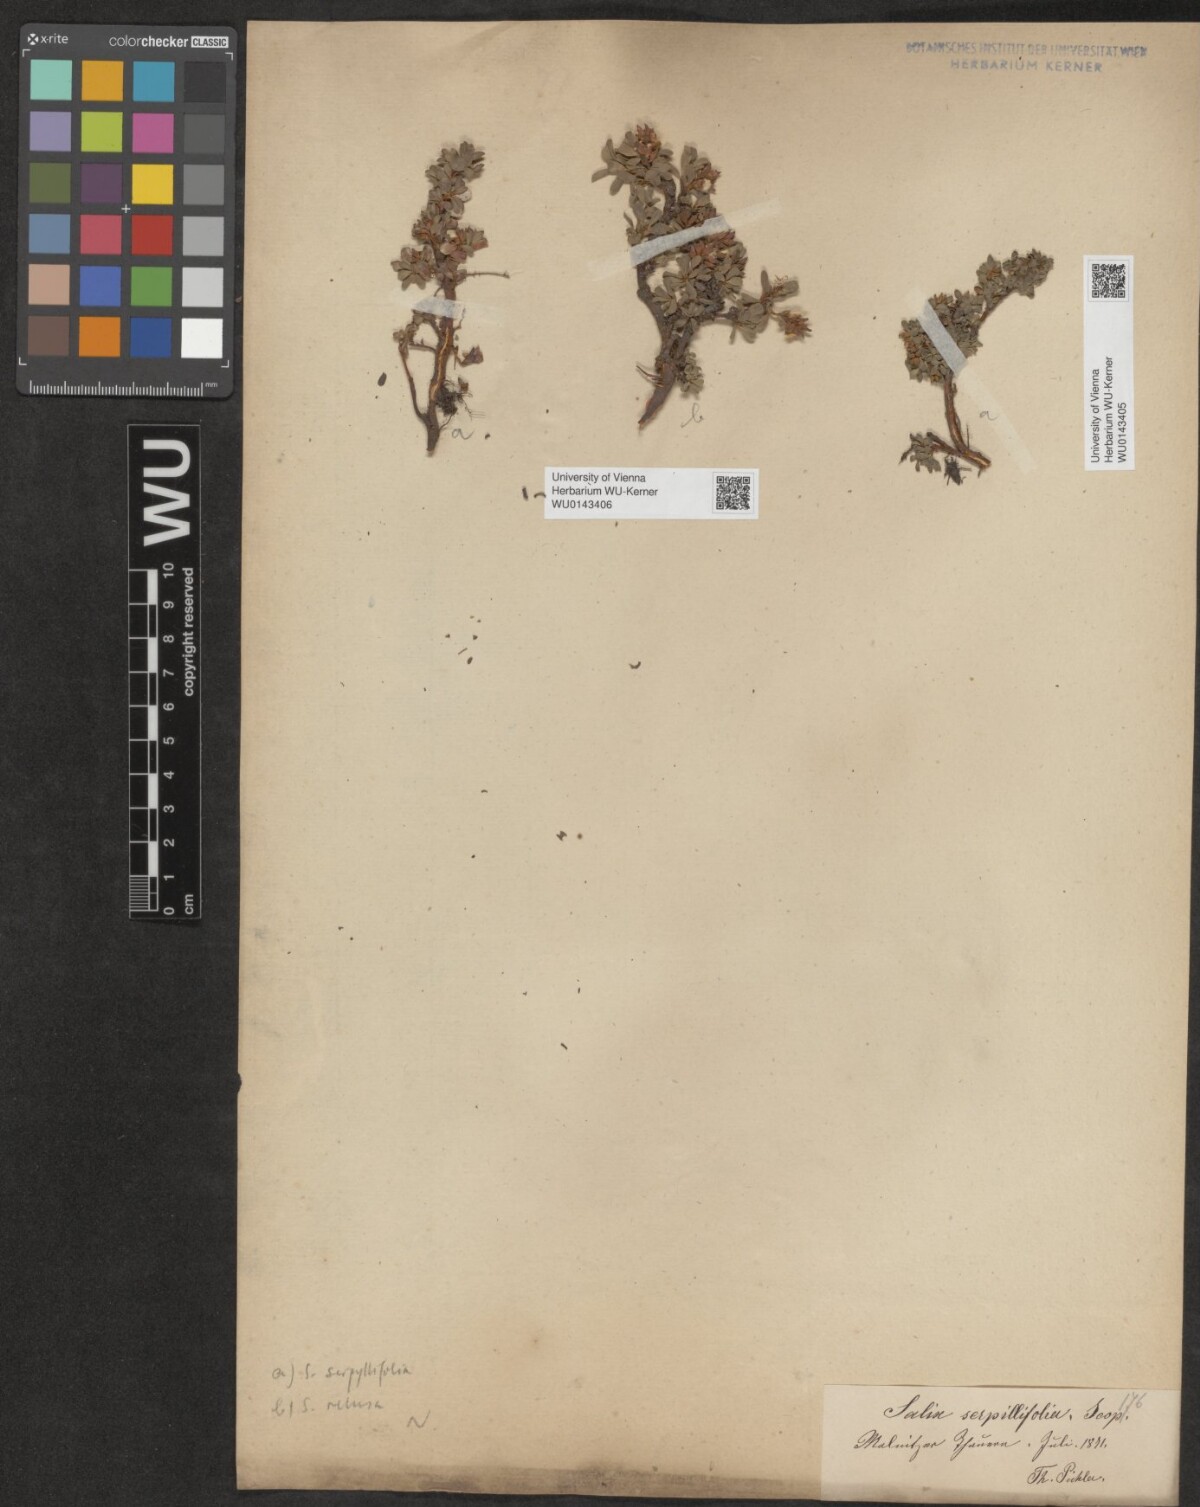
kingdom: Plantae
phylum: Tracheophyta
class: Magnoliopsida
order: Malpighiales
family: Salicaceae
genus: Salix
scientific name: Salix serpillifolia
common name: Thyme-leaf willow
